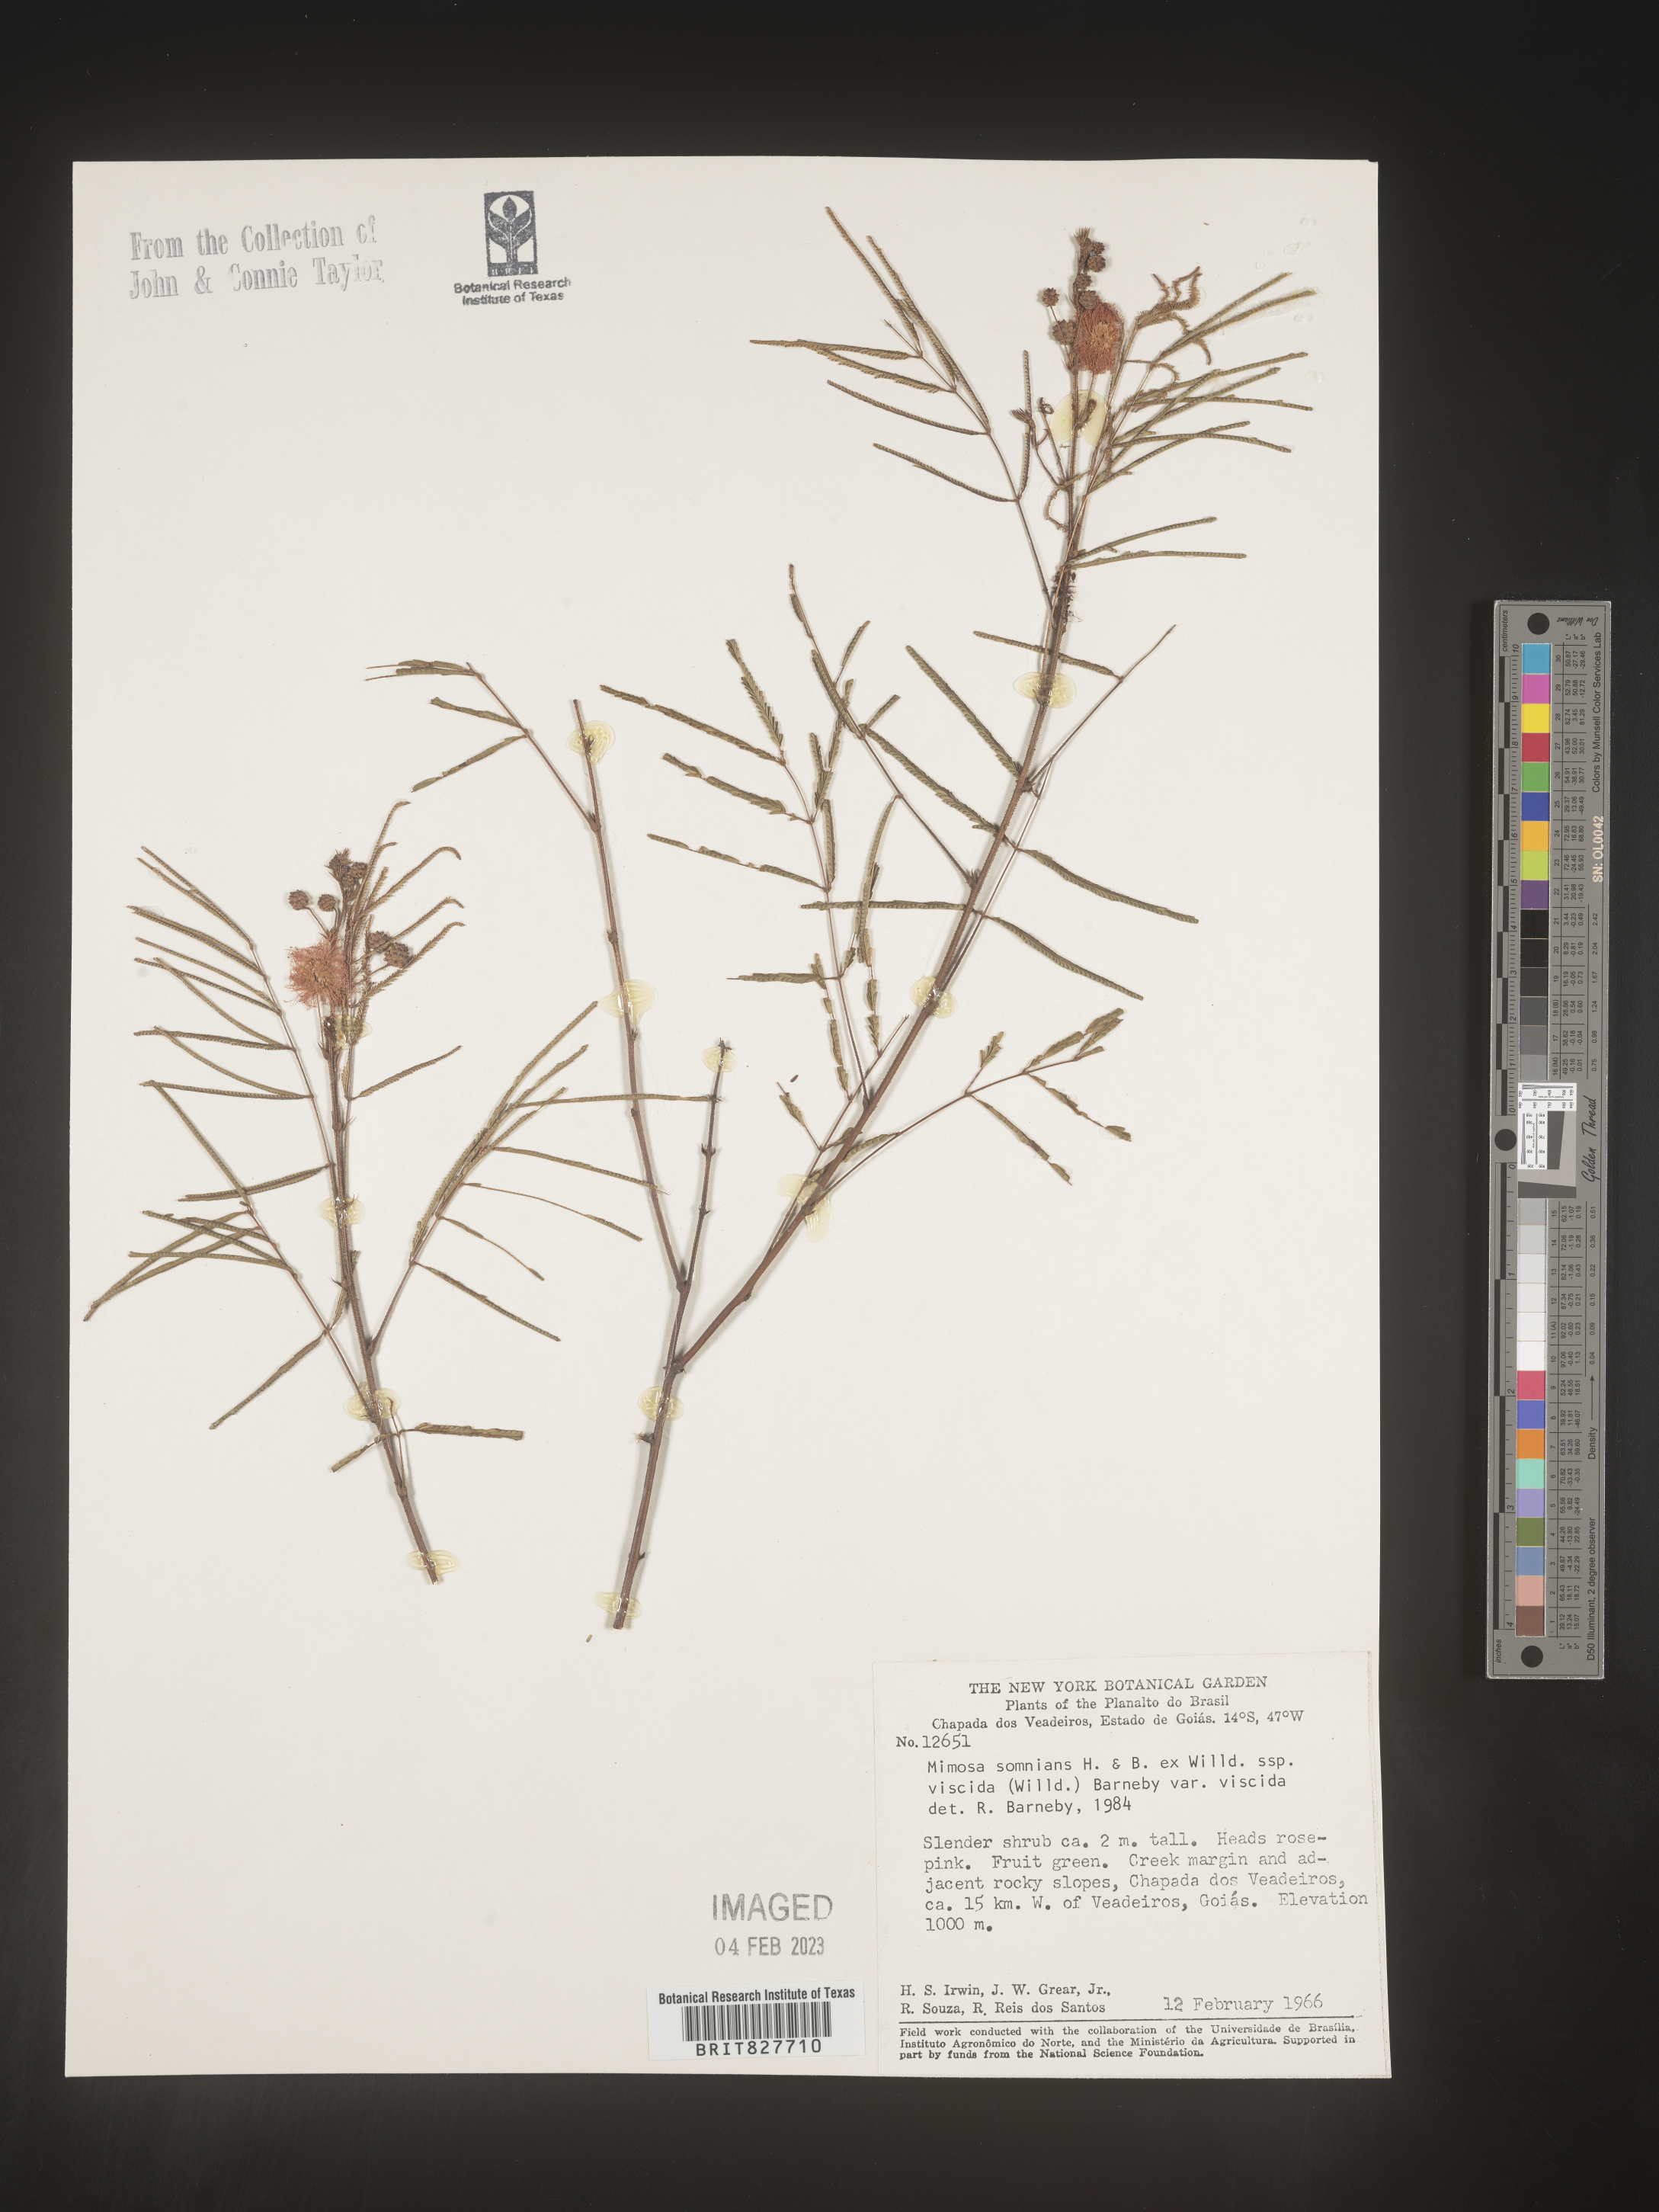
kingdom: Plantae
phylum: Tracheophyta
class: Magnoliopsida
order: Fabales
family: Fabaceae
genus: Mimosa
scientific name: Mimosa
